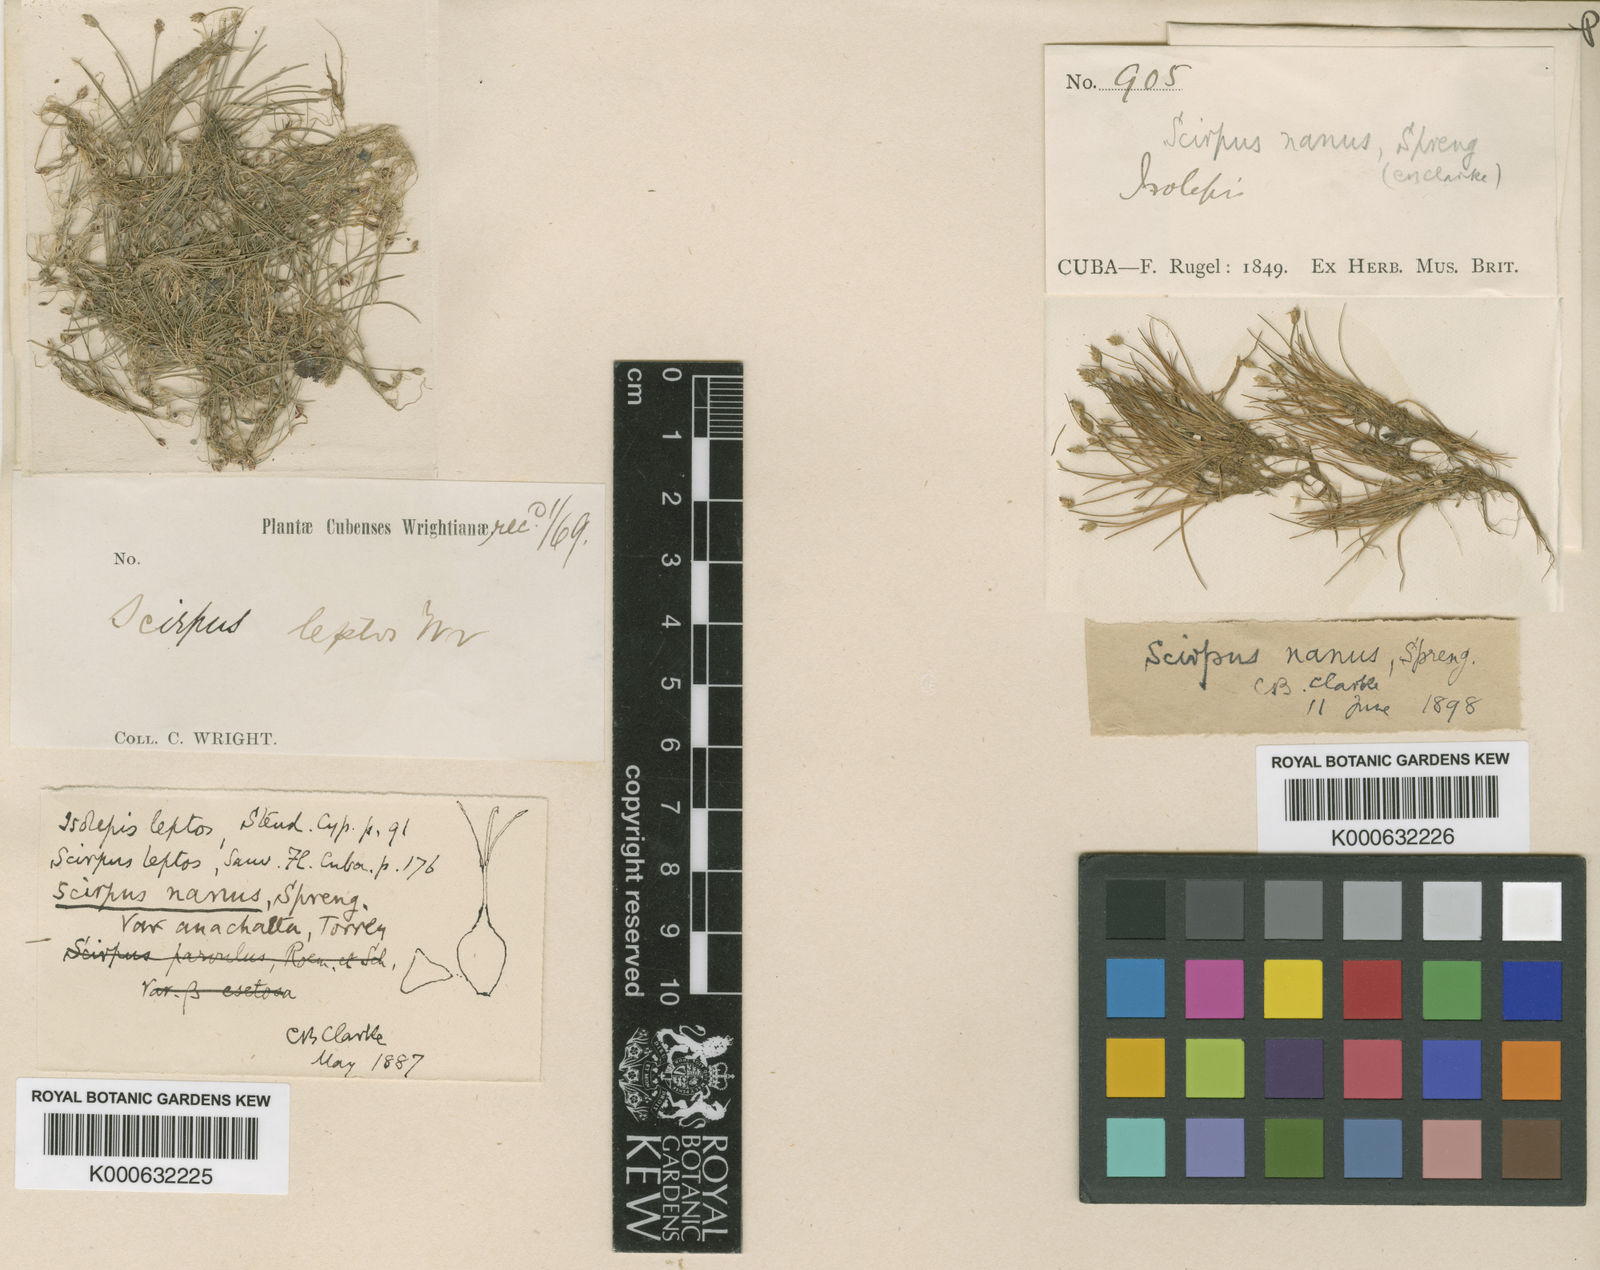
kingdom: Plantae
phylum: Tracheophyta
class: Liliopsida
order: Poales
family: Cyperaceae
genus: Eleocharis
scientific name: Eleocharis parvula
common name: Dwarf spike-rush
